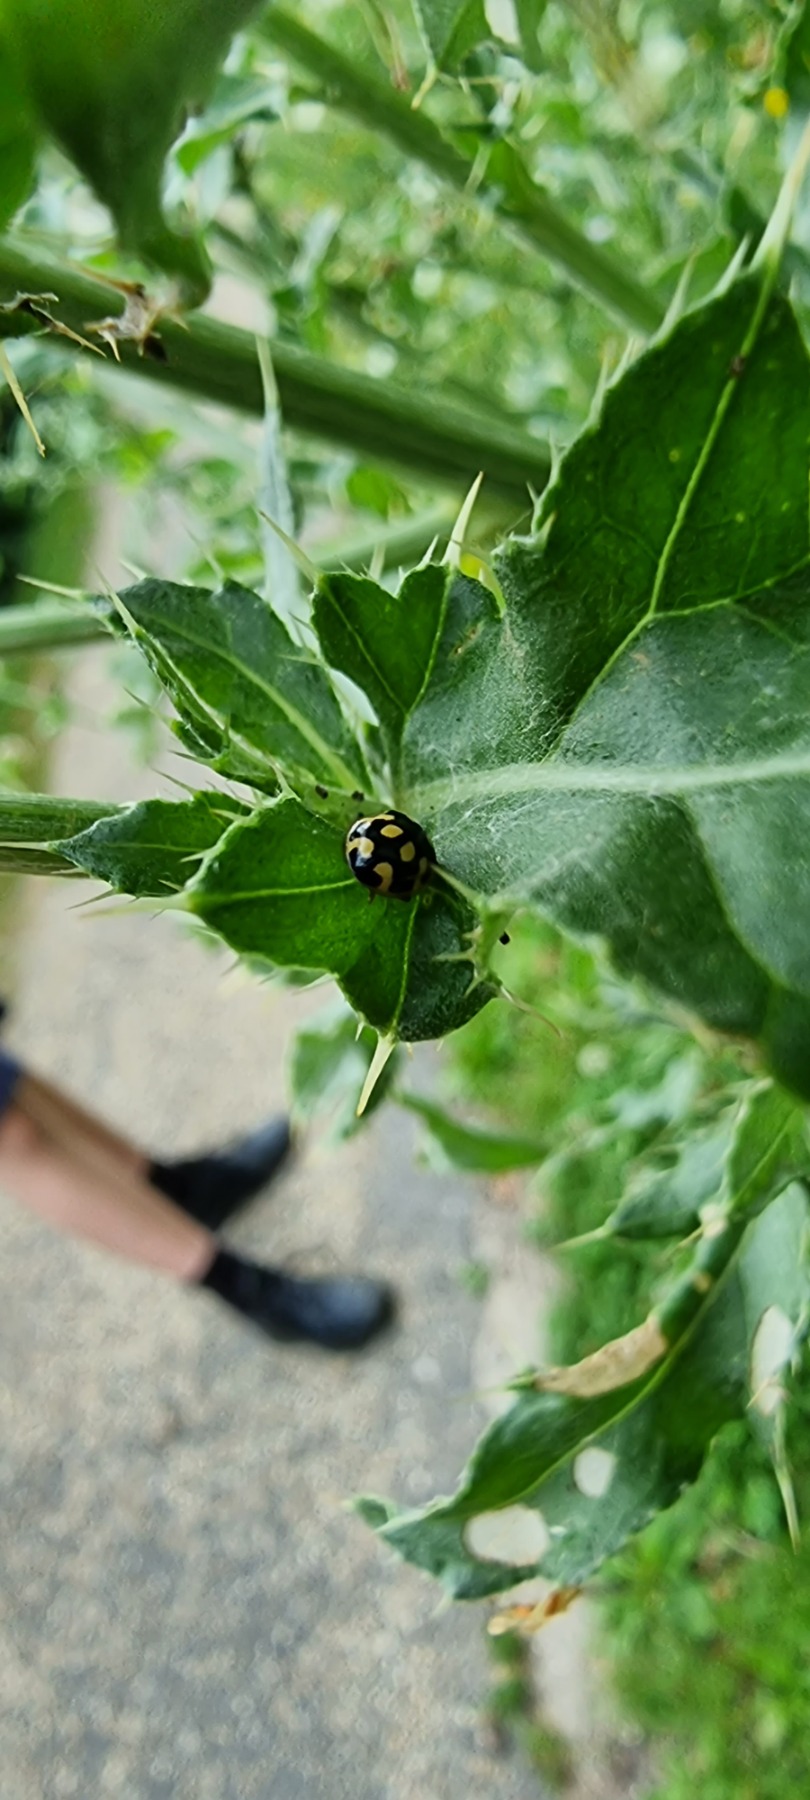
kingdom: Animalia
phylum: Arthropoda
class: Insecta
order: Coleoptera
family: Coccinellidae
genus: Propylaea
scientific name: Propylaea quatuordecimpunctata
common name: Skakbræt
